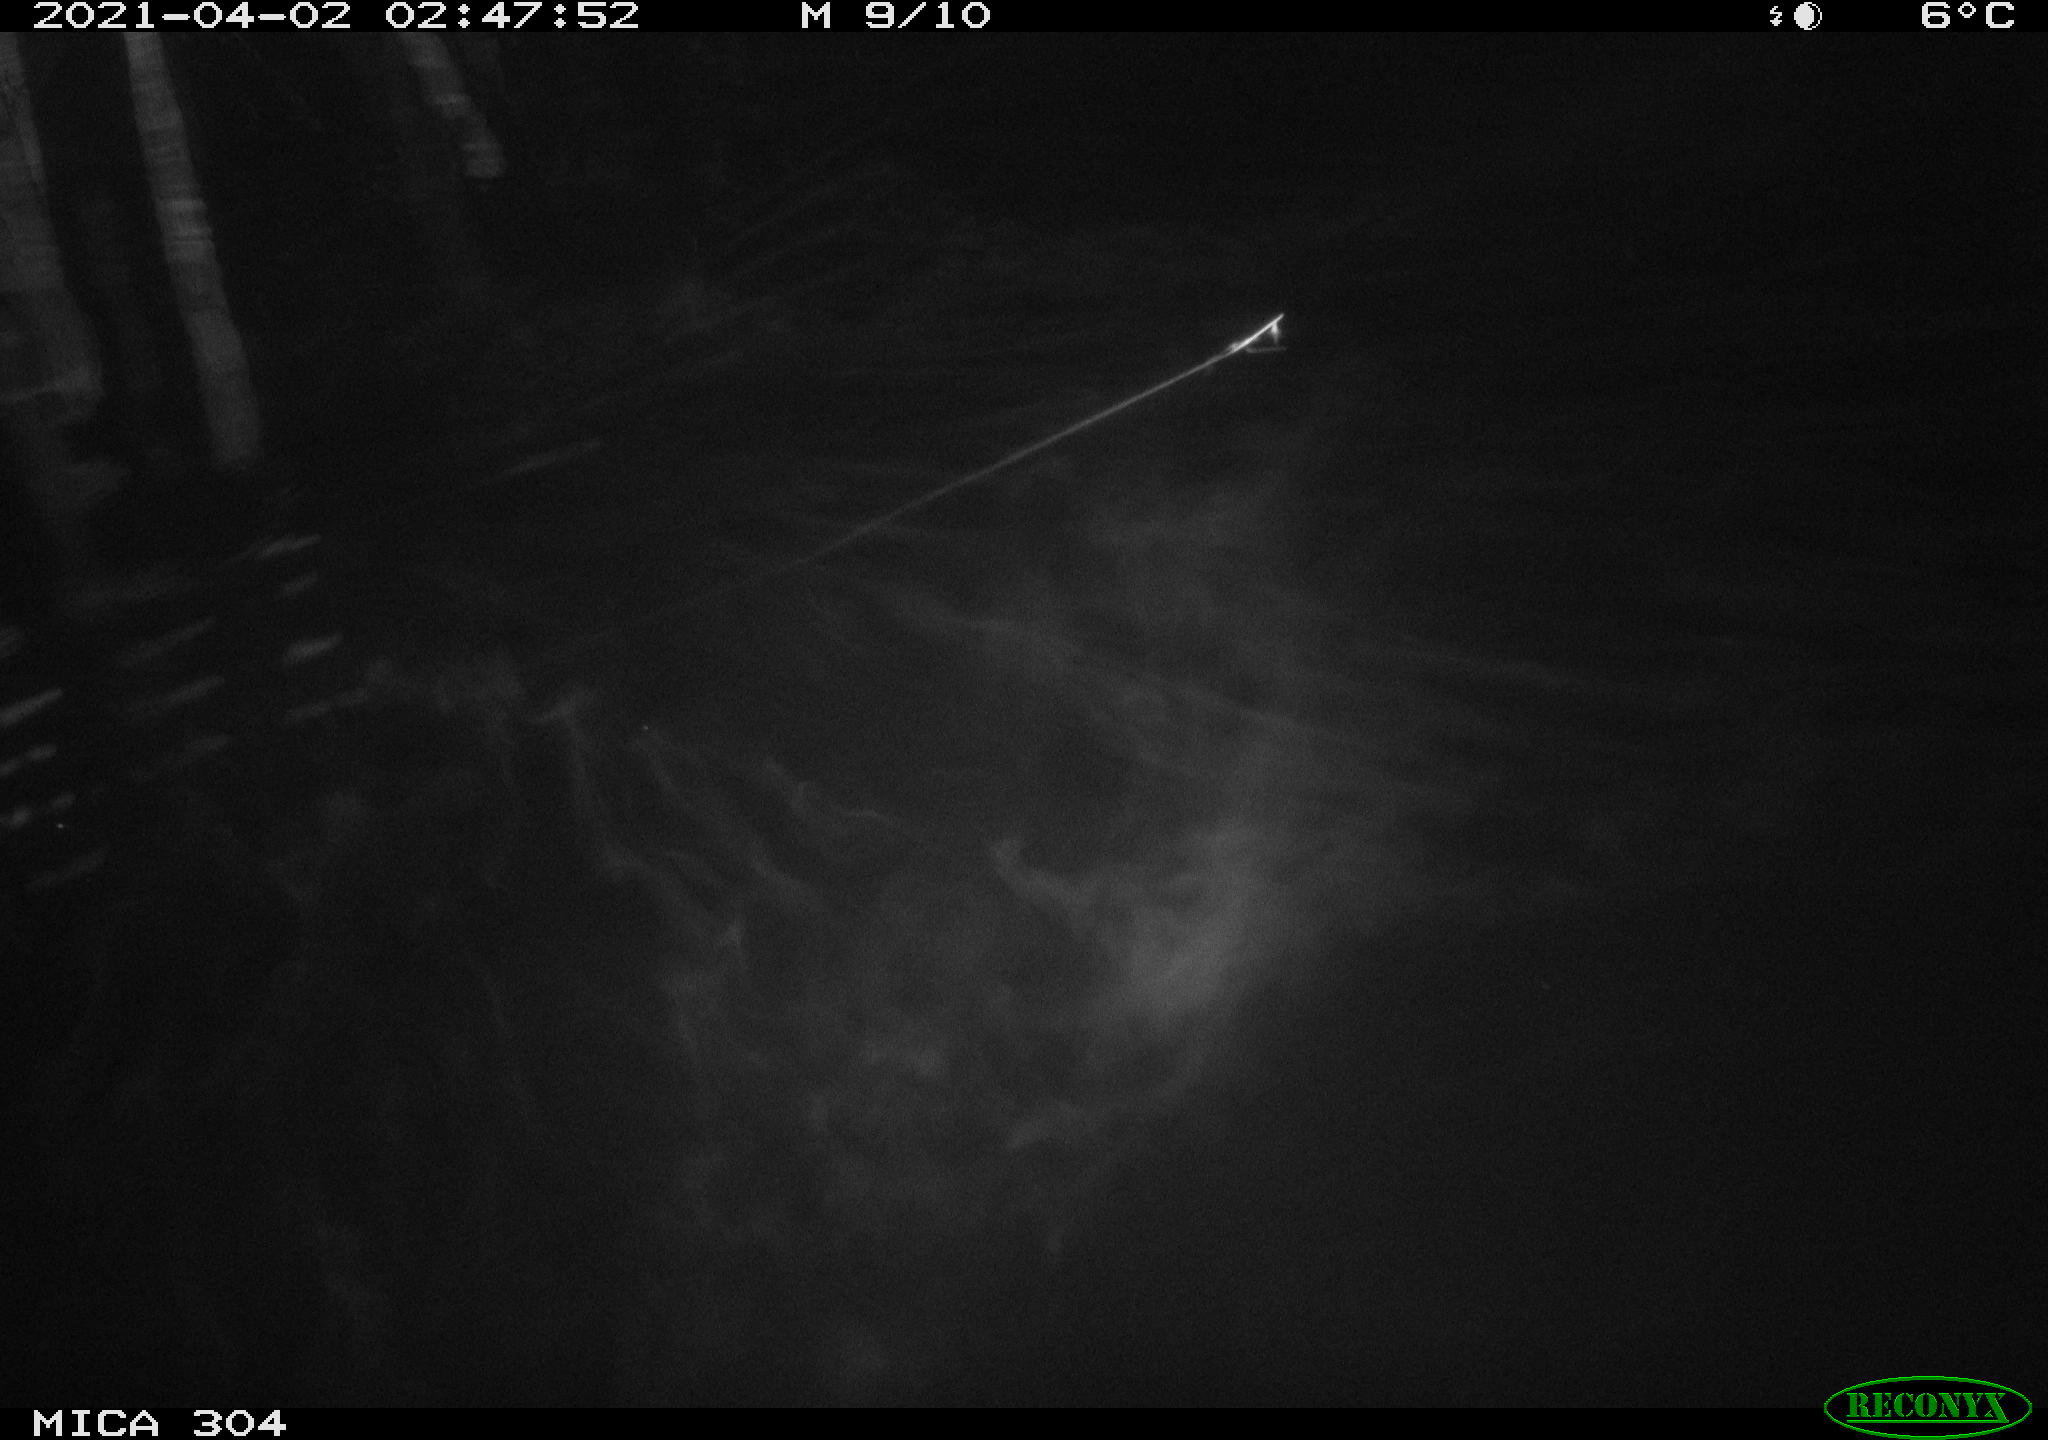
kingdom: Animalia
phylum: Chordata
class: Aves
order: Anseriformes
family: Anatidae
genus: Anas
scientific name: Anas
